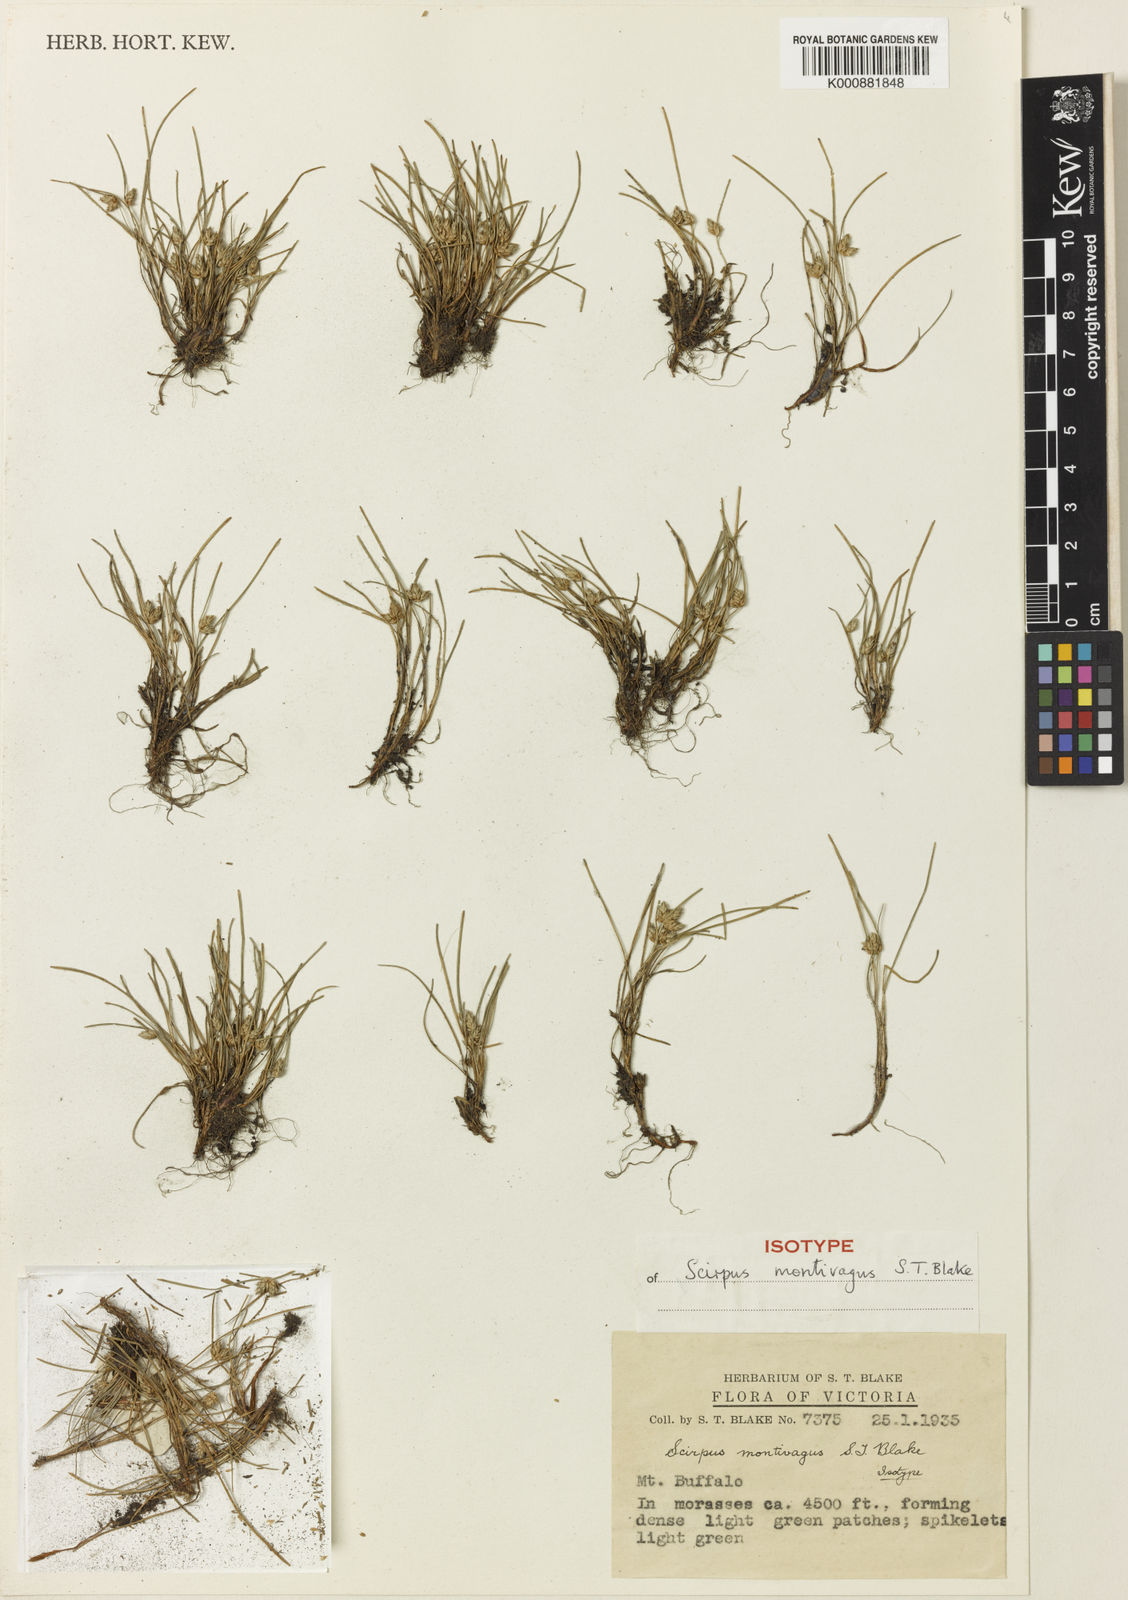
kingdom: Plantae
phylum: Tracheophyta
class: Liliopsida
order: Poales
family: Cyperaceae
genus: Isolepis
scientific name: Isolepis montivaga
